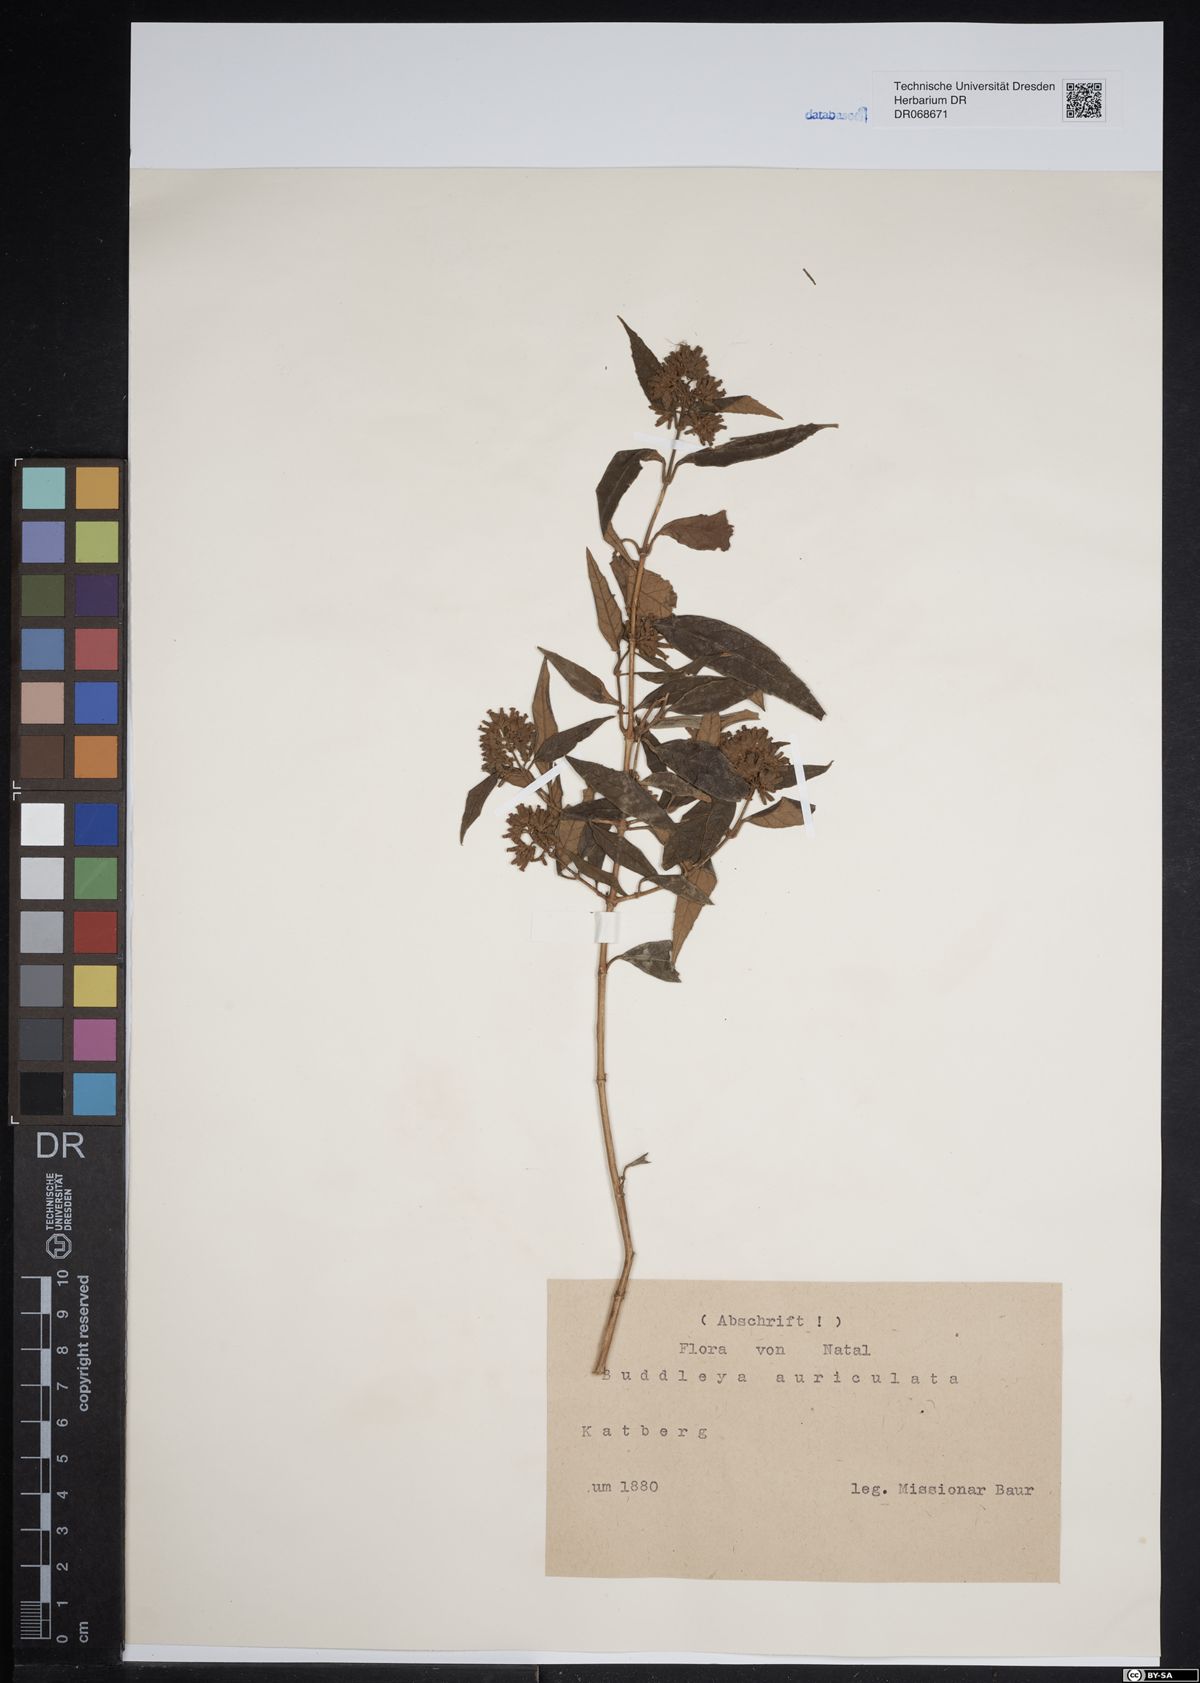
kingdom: Plantae
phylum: Tracheophyta
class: Magnoliopsida
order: Lamiales
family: Scrophulariaceae
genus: Buddleja
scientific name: Buddleja auriculata
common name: Weeping sagewood
